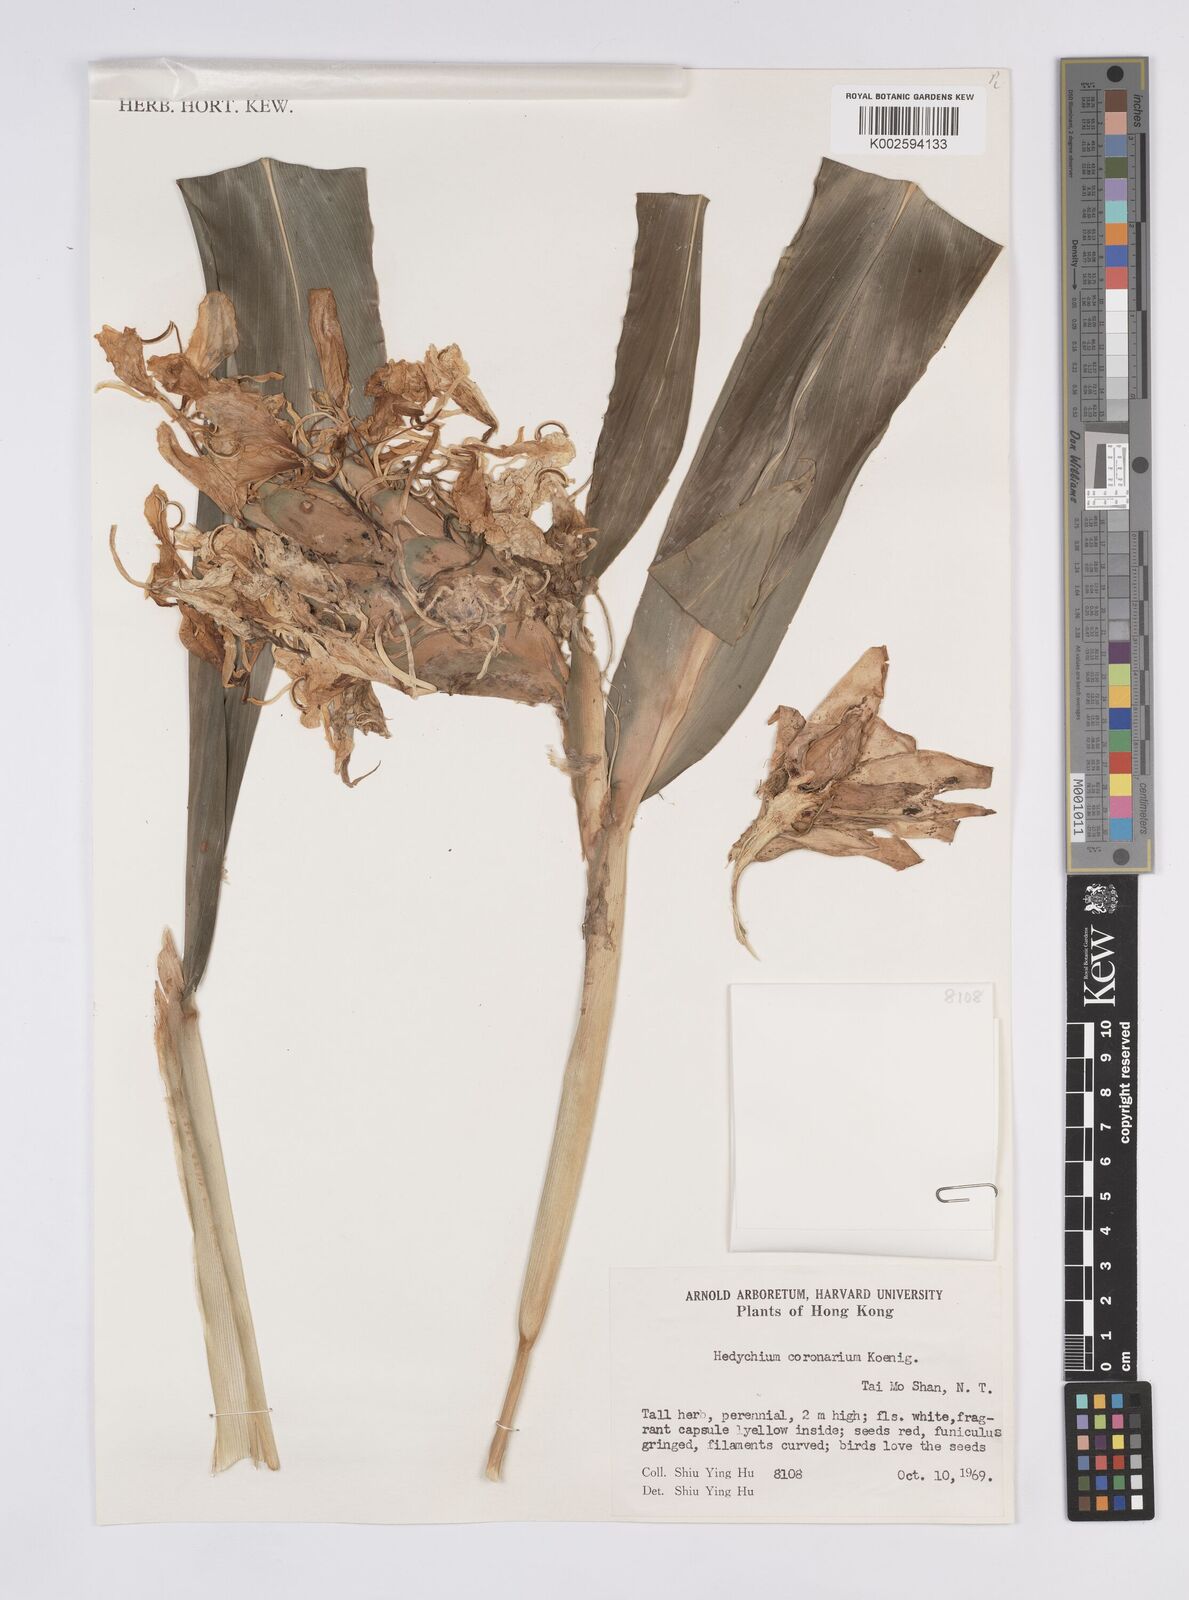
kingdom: Plantae
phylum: Tracheophyta
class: Liliopsida
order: Zingiberales
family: Zingiberaceae
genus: Hedychium
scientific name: Hedychium coronarium
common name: White garland-lily
